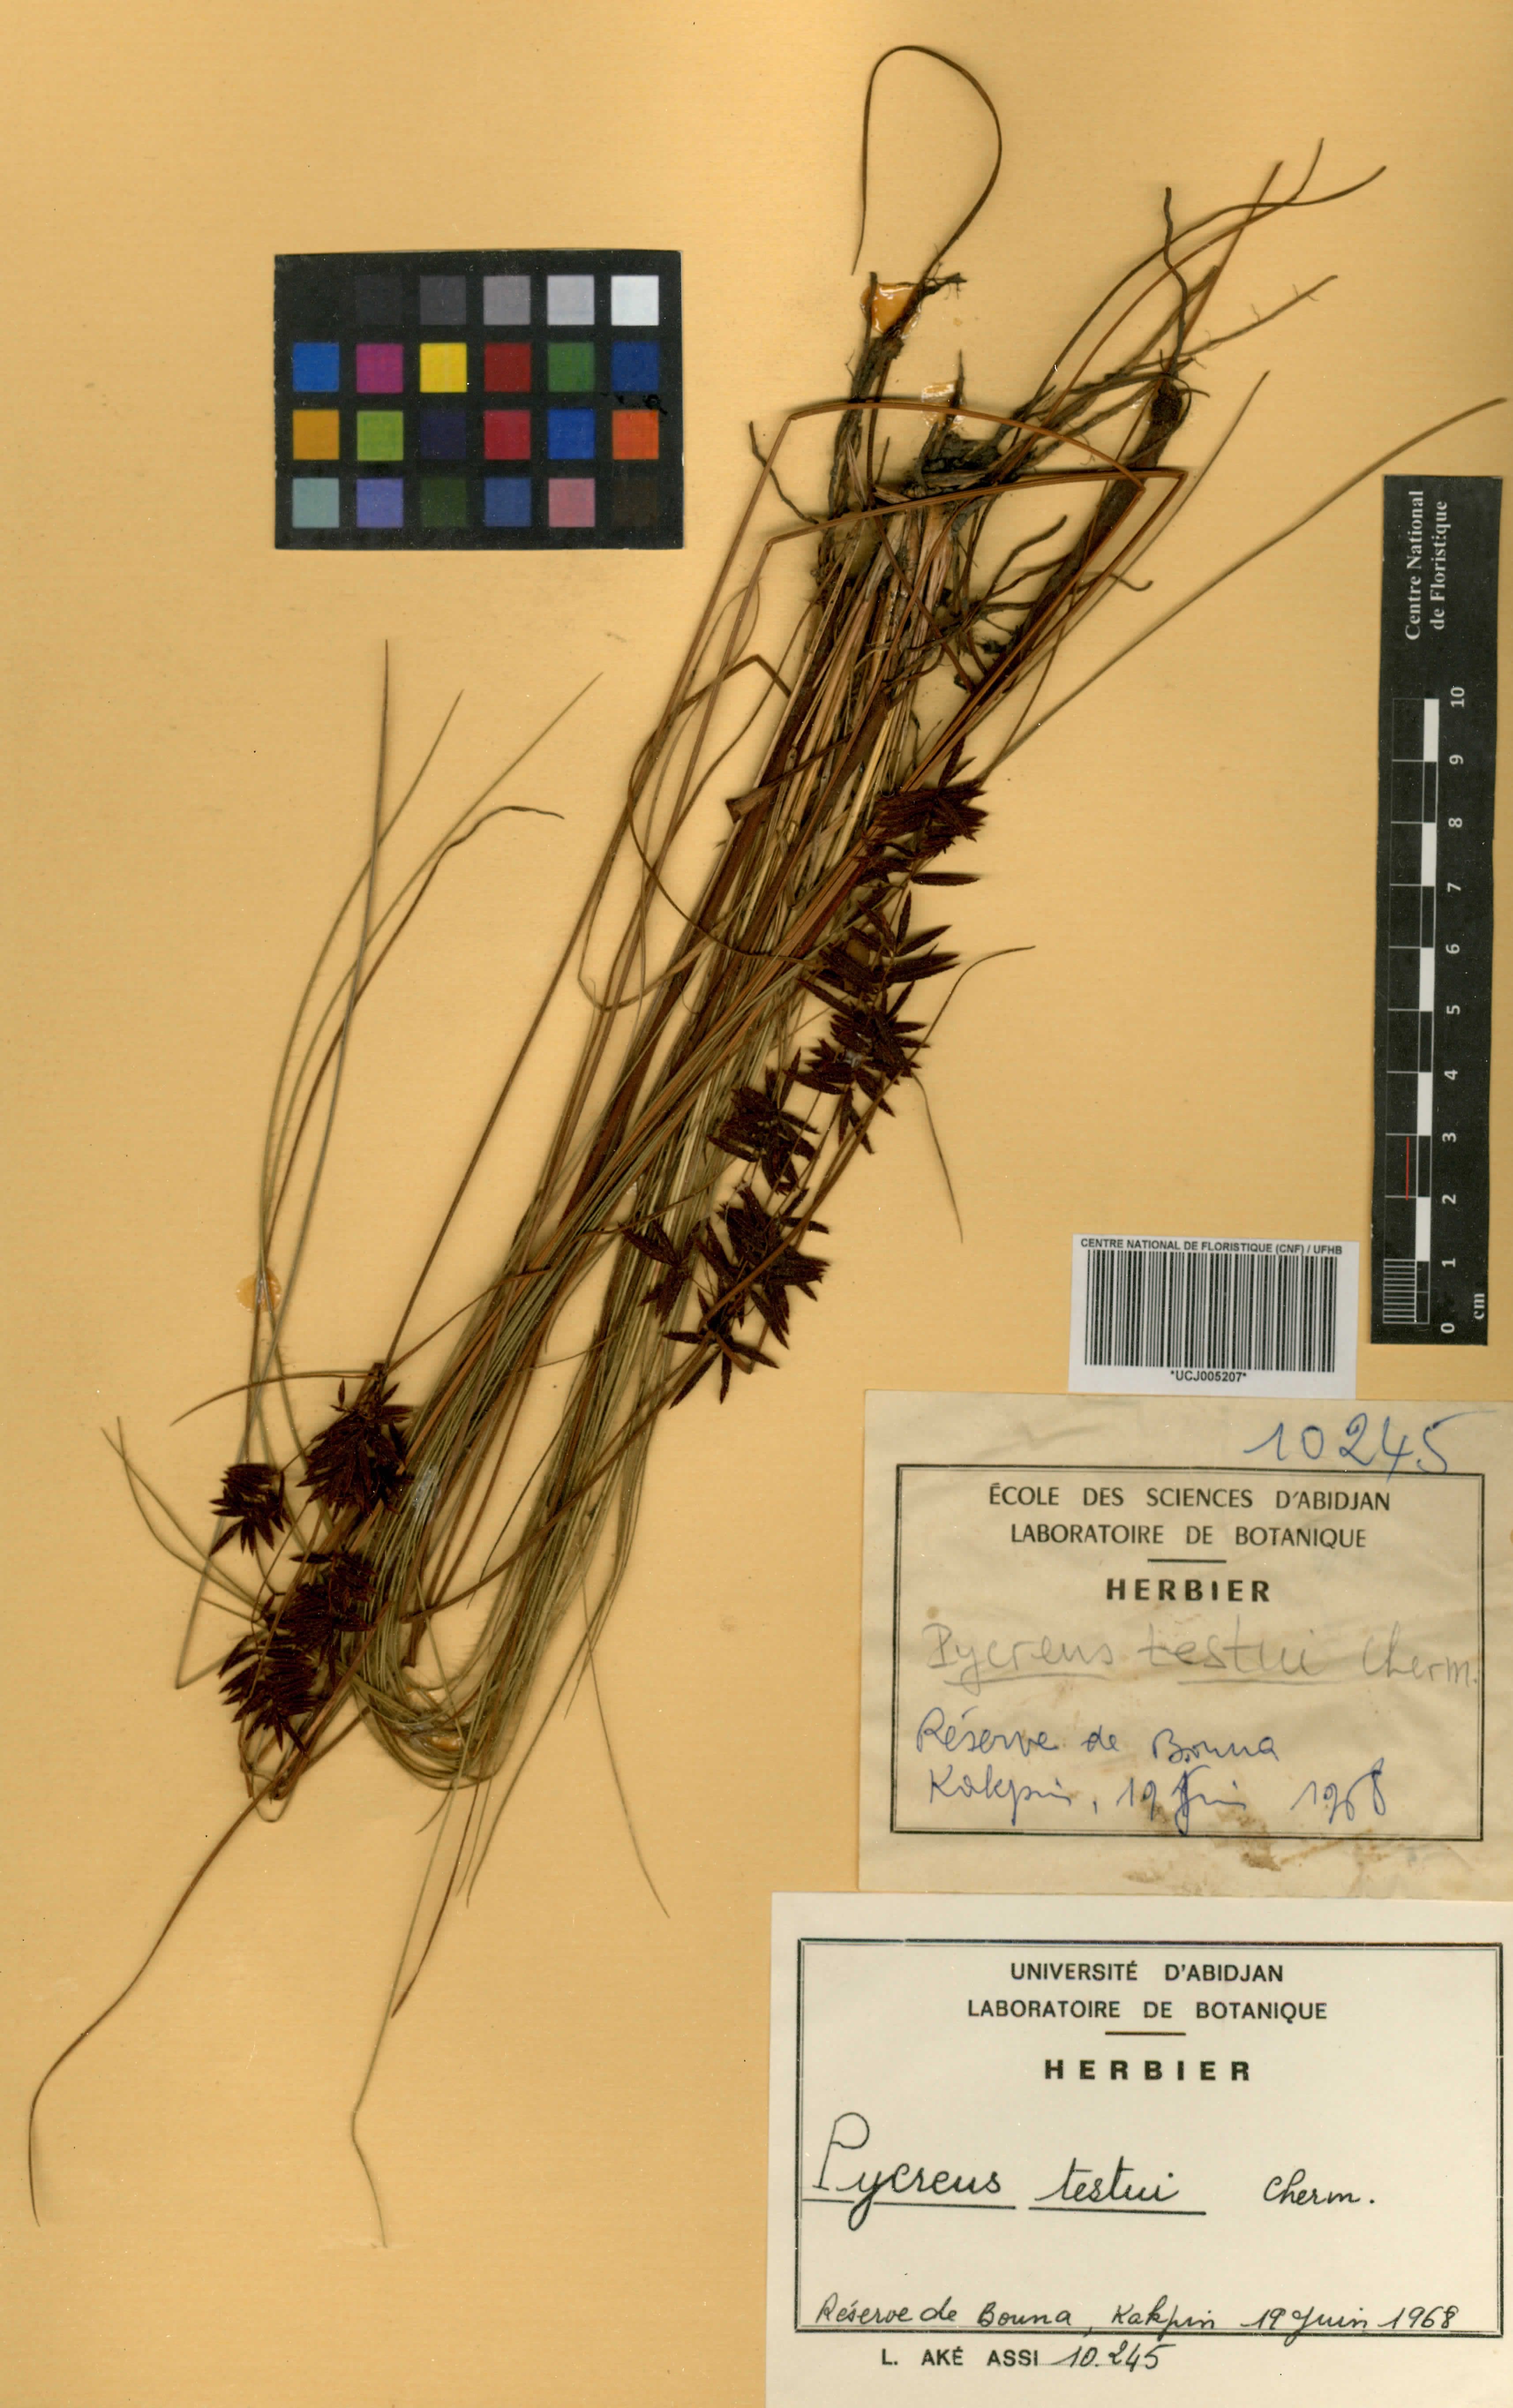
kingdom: Plantae
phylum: Tracheophyta
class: Liliopsida
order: Poales
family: Cyperaceae
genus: Cyperus
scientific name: Cyperus testui
